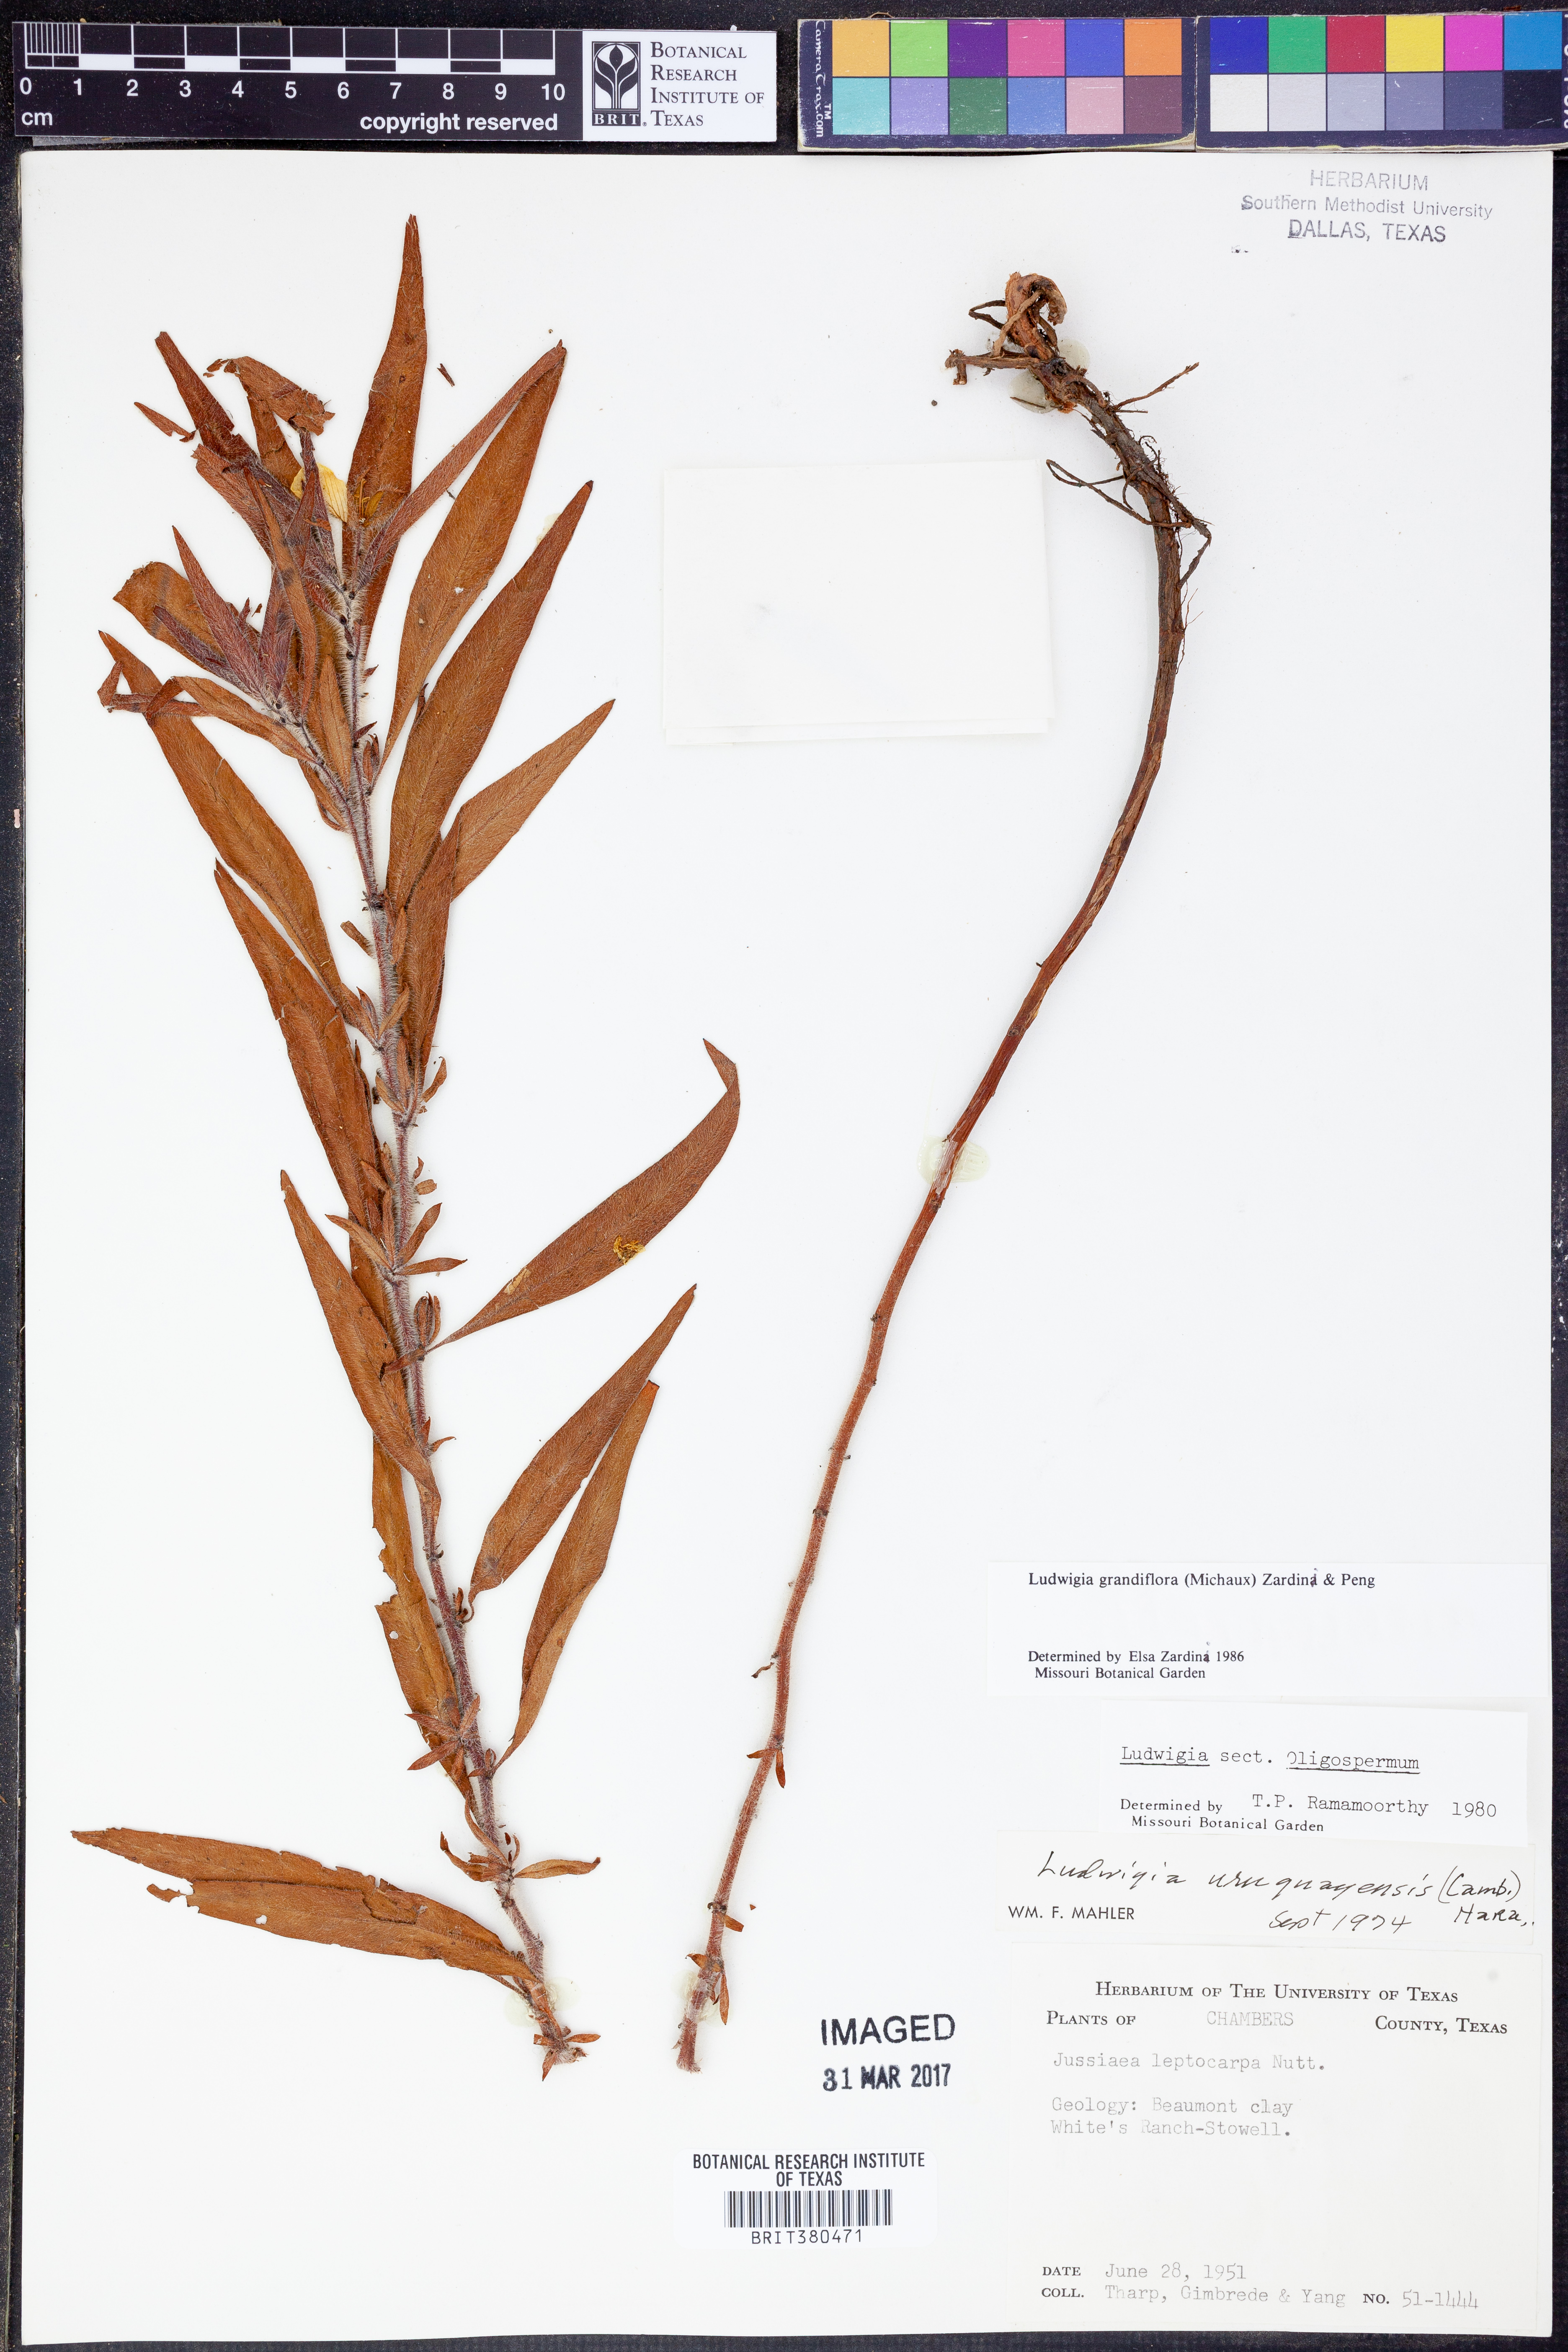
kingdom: Plantae
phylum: Tracheophyta
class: Magnoliopsida
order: Myrtales
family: Onagraceae
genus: Ludwigia
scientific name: Ludwigia grandiflora
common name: Water primrose
